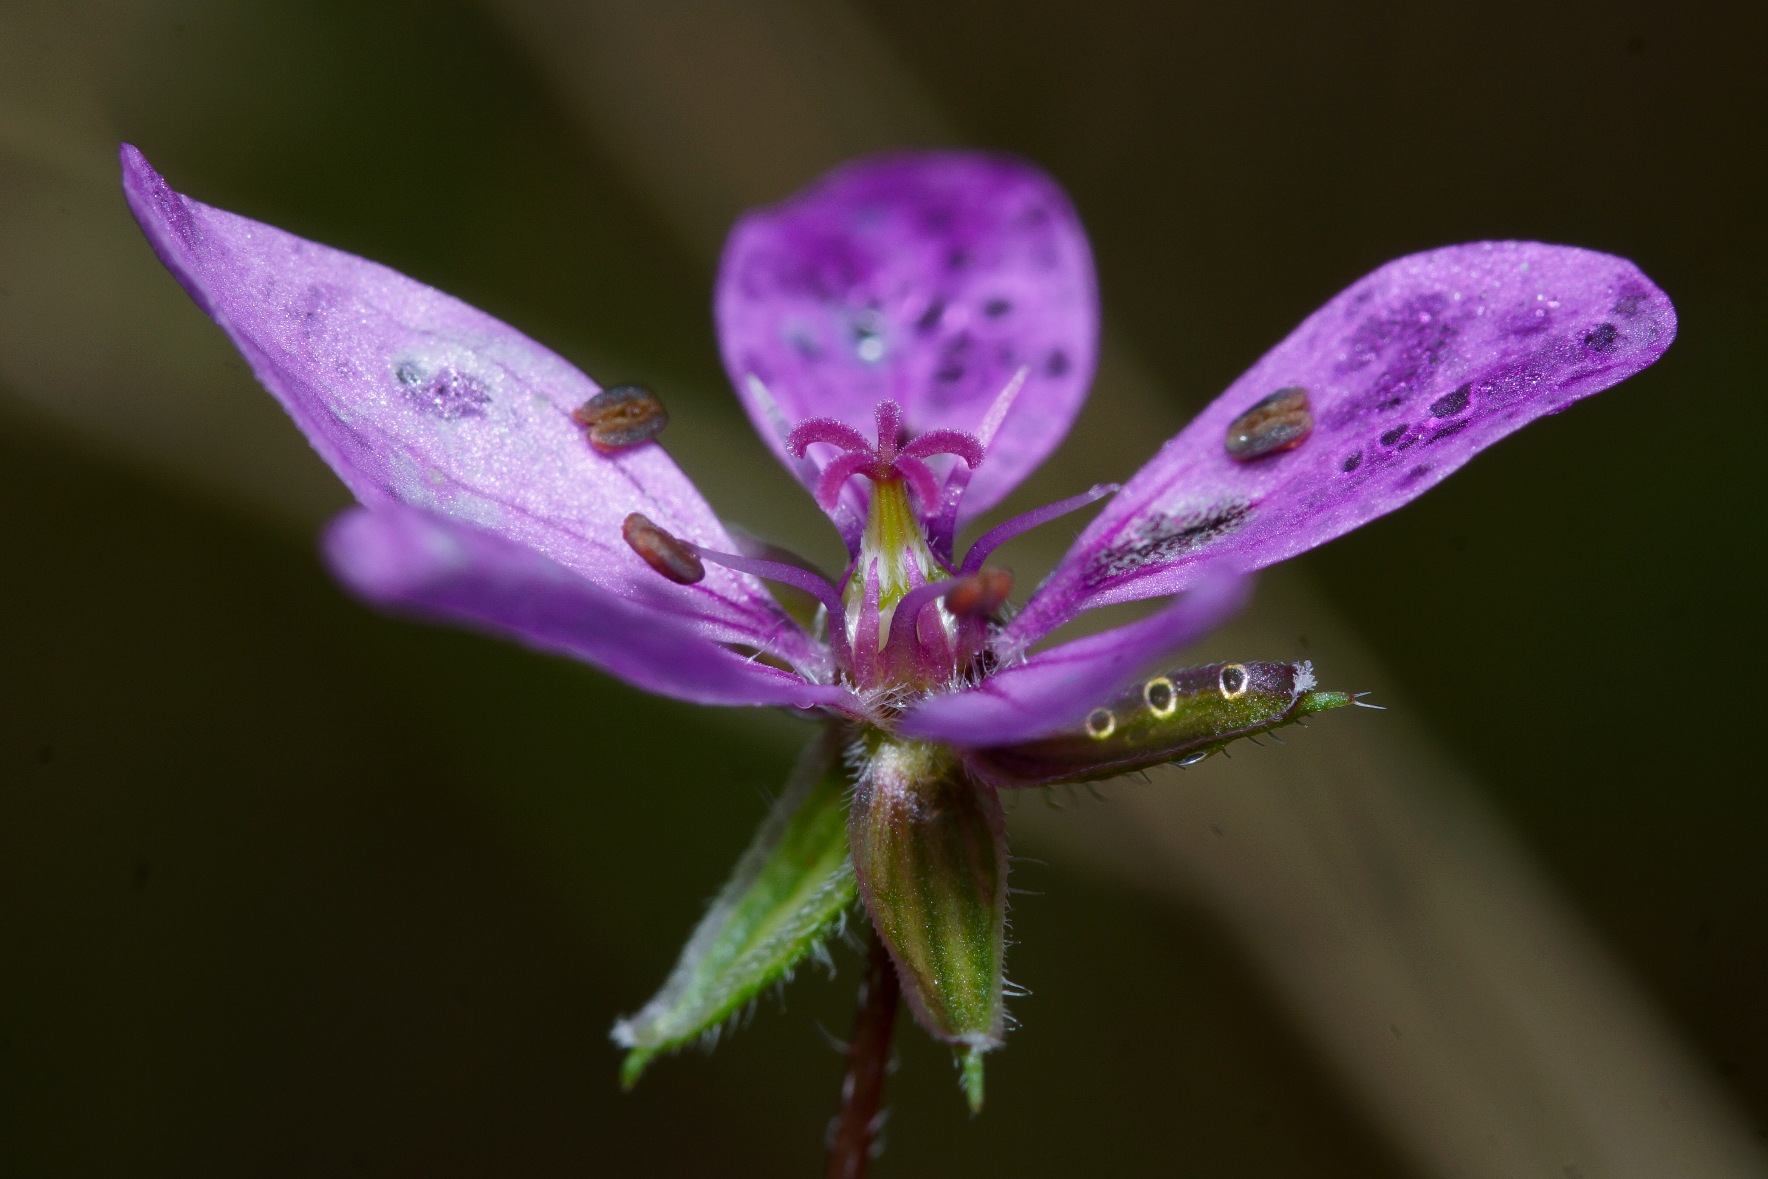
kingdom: Plantae
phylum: Tracheophyta
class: Magnoliopsida
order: Geraniales
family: Geraniaceae
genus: Erodium
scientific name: Erodium cicutarium
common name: Hejrenæb
